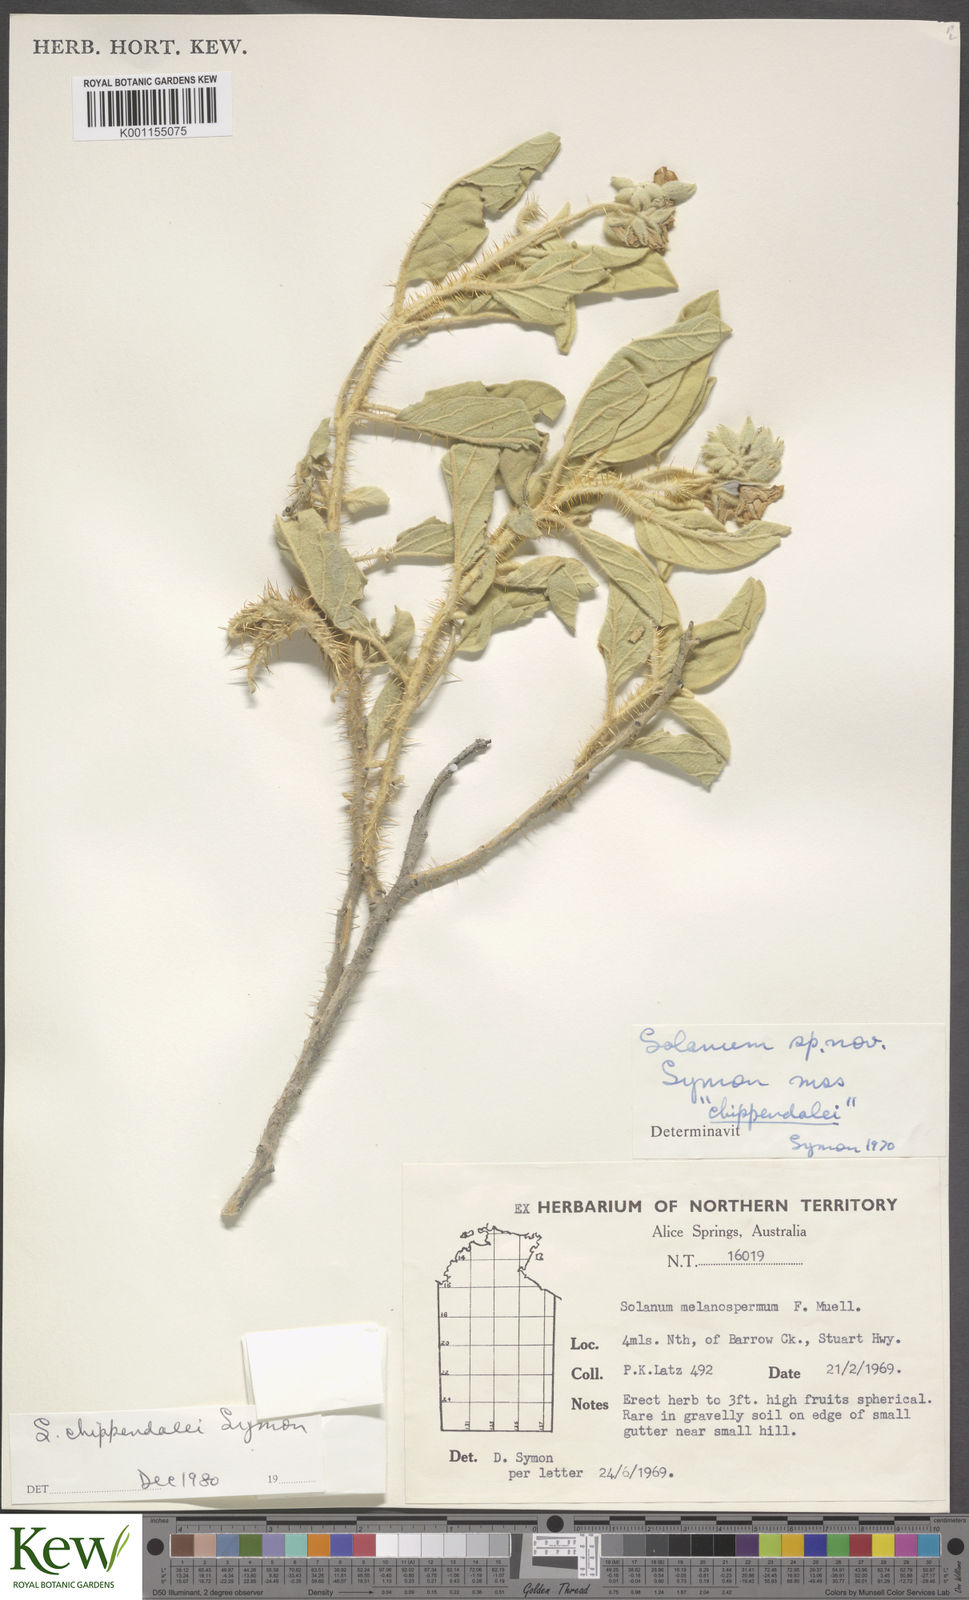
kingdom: Plantae
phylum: Tracheophyta
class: Magnoliopsida
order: Solanales
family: Solanaceae
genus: Solanum
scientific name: Solanum chippendalei
